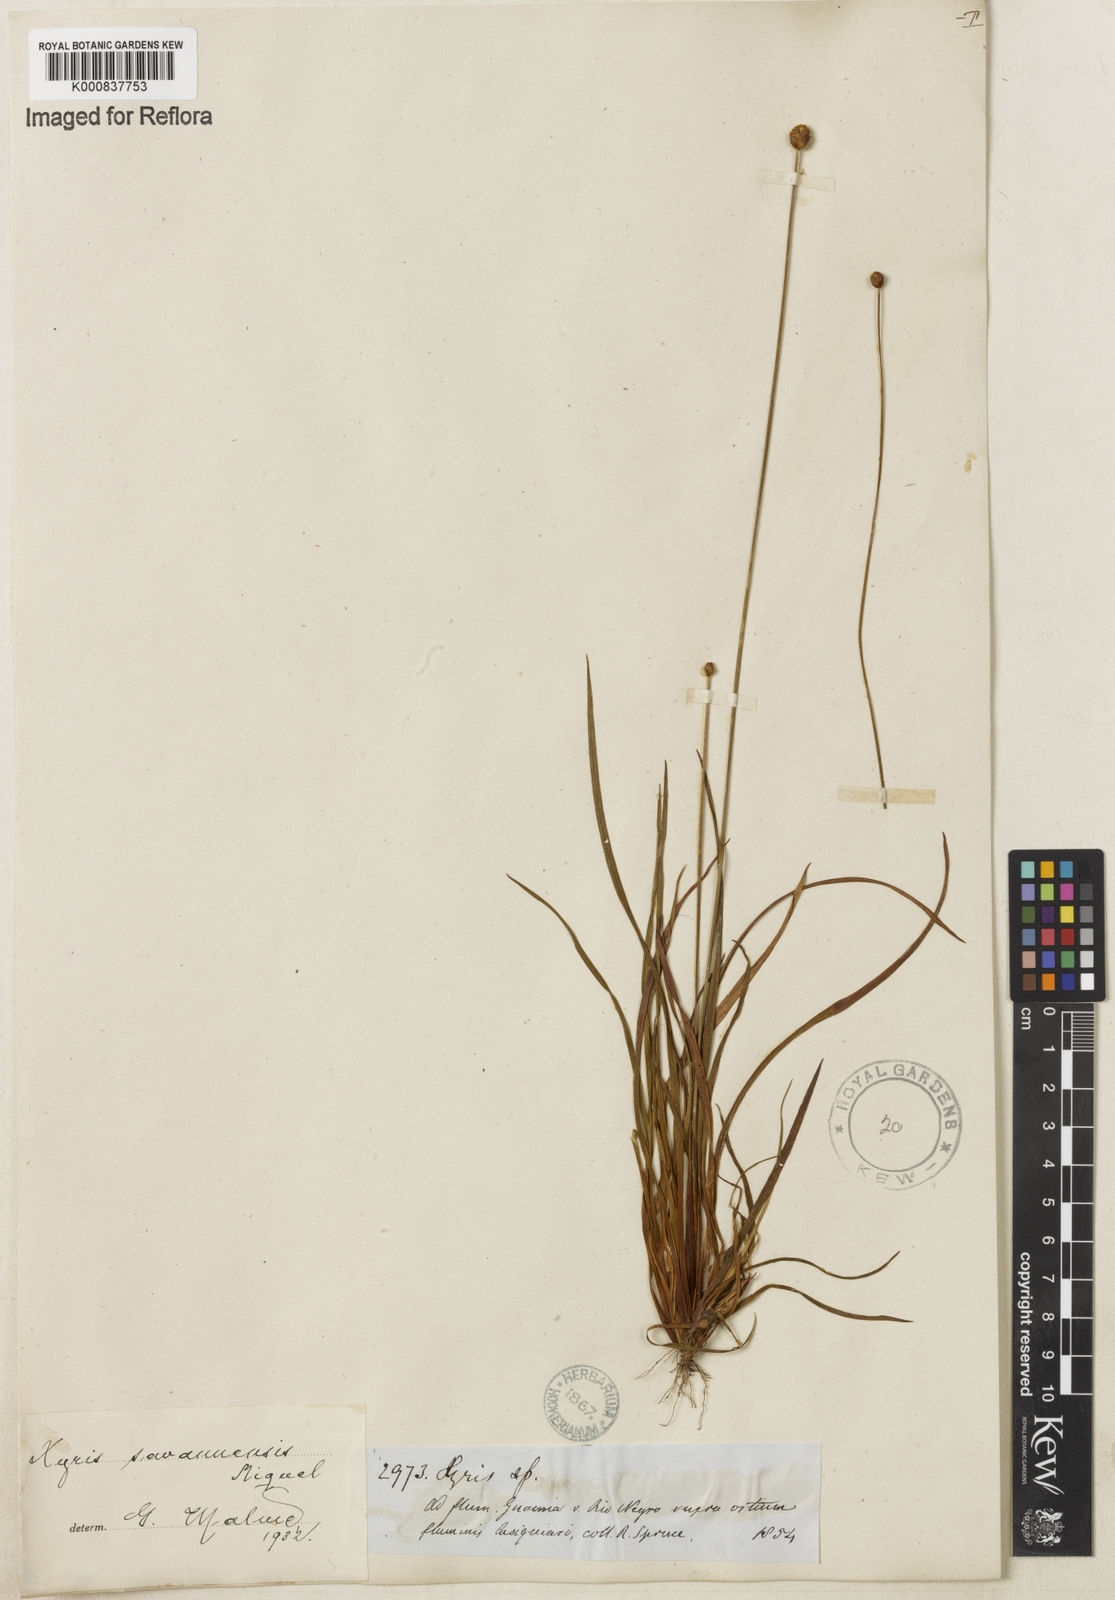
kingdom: Plantae
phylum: Tracheophyta
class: Liliopsida
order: Poales
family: Xyridaceae
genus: Xyris
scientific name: Xyris savanensis
